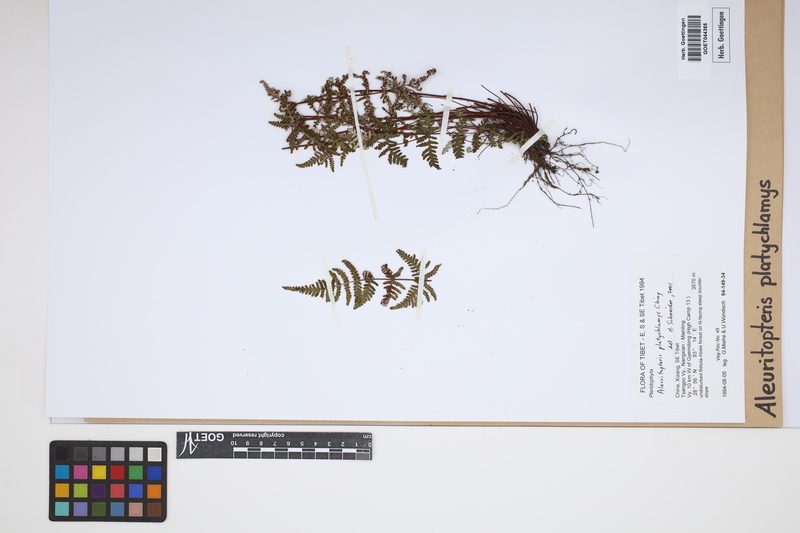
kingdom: Plantae
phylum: Tracheophyta
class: Polypodiopsida
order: Polypodiales
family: Pteridaceae
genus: Aleuritopteris
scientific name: Aleuritopteris grisea
